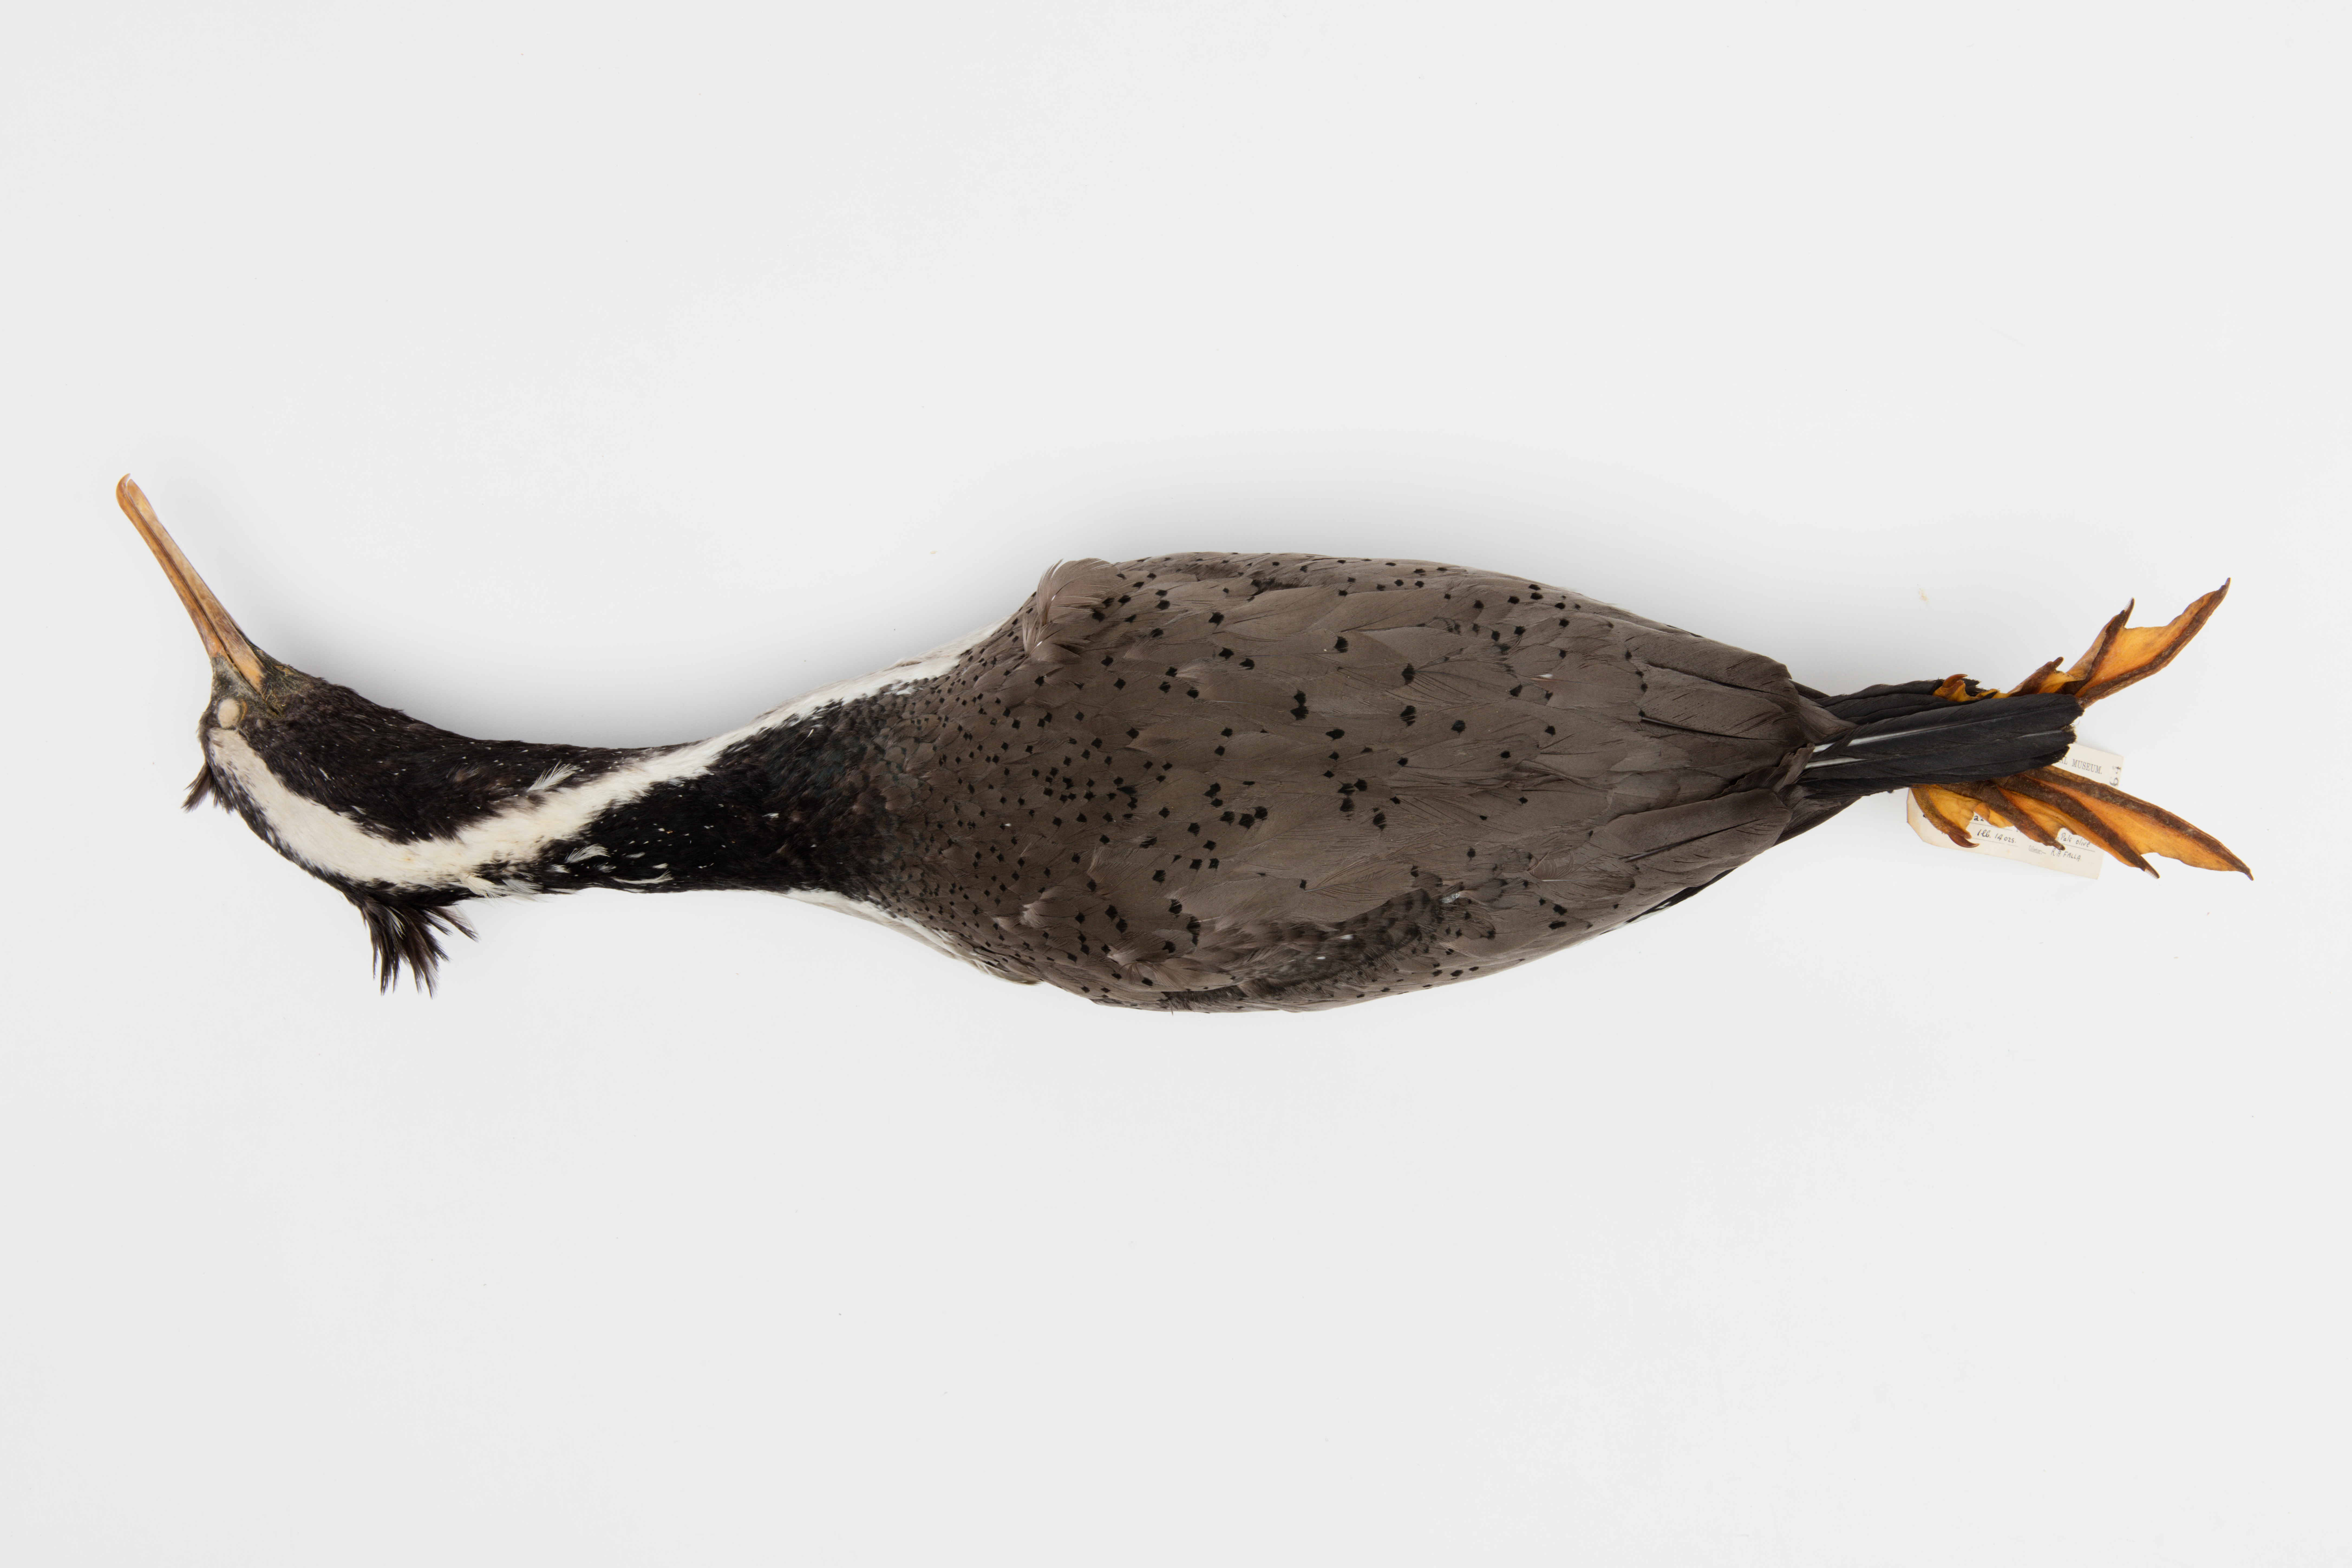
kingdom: Animalia
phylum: Chordata
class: Aves
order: Suliformes
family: Phalacrocoracidae
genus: Phalacrocorax
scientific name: Phalacrocorax punctatus
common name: Spotted shag
